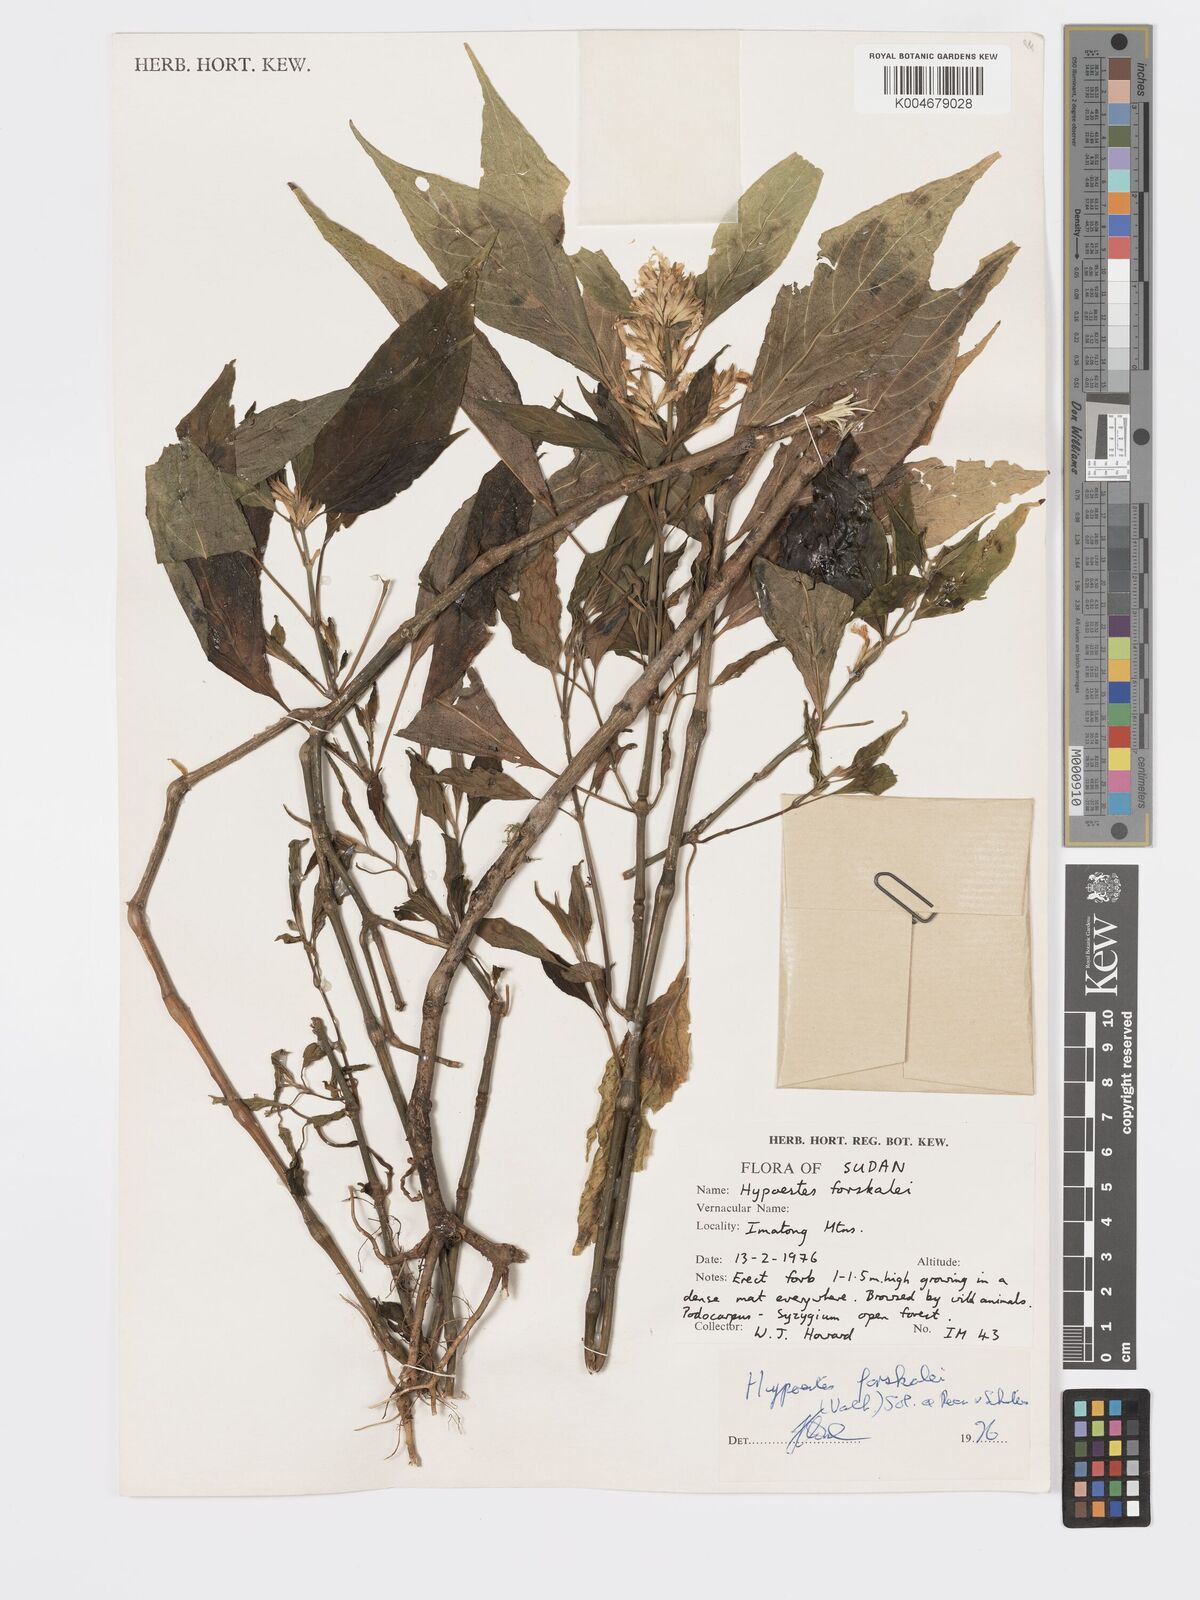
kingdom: Plantae
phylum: Tracheophyta
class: Magnoliopsida
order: Lamiales
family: Acanthaceae
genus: Hypoestes
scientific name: Hypoestes forskaolii
